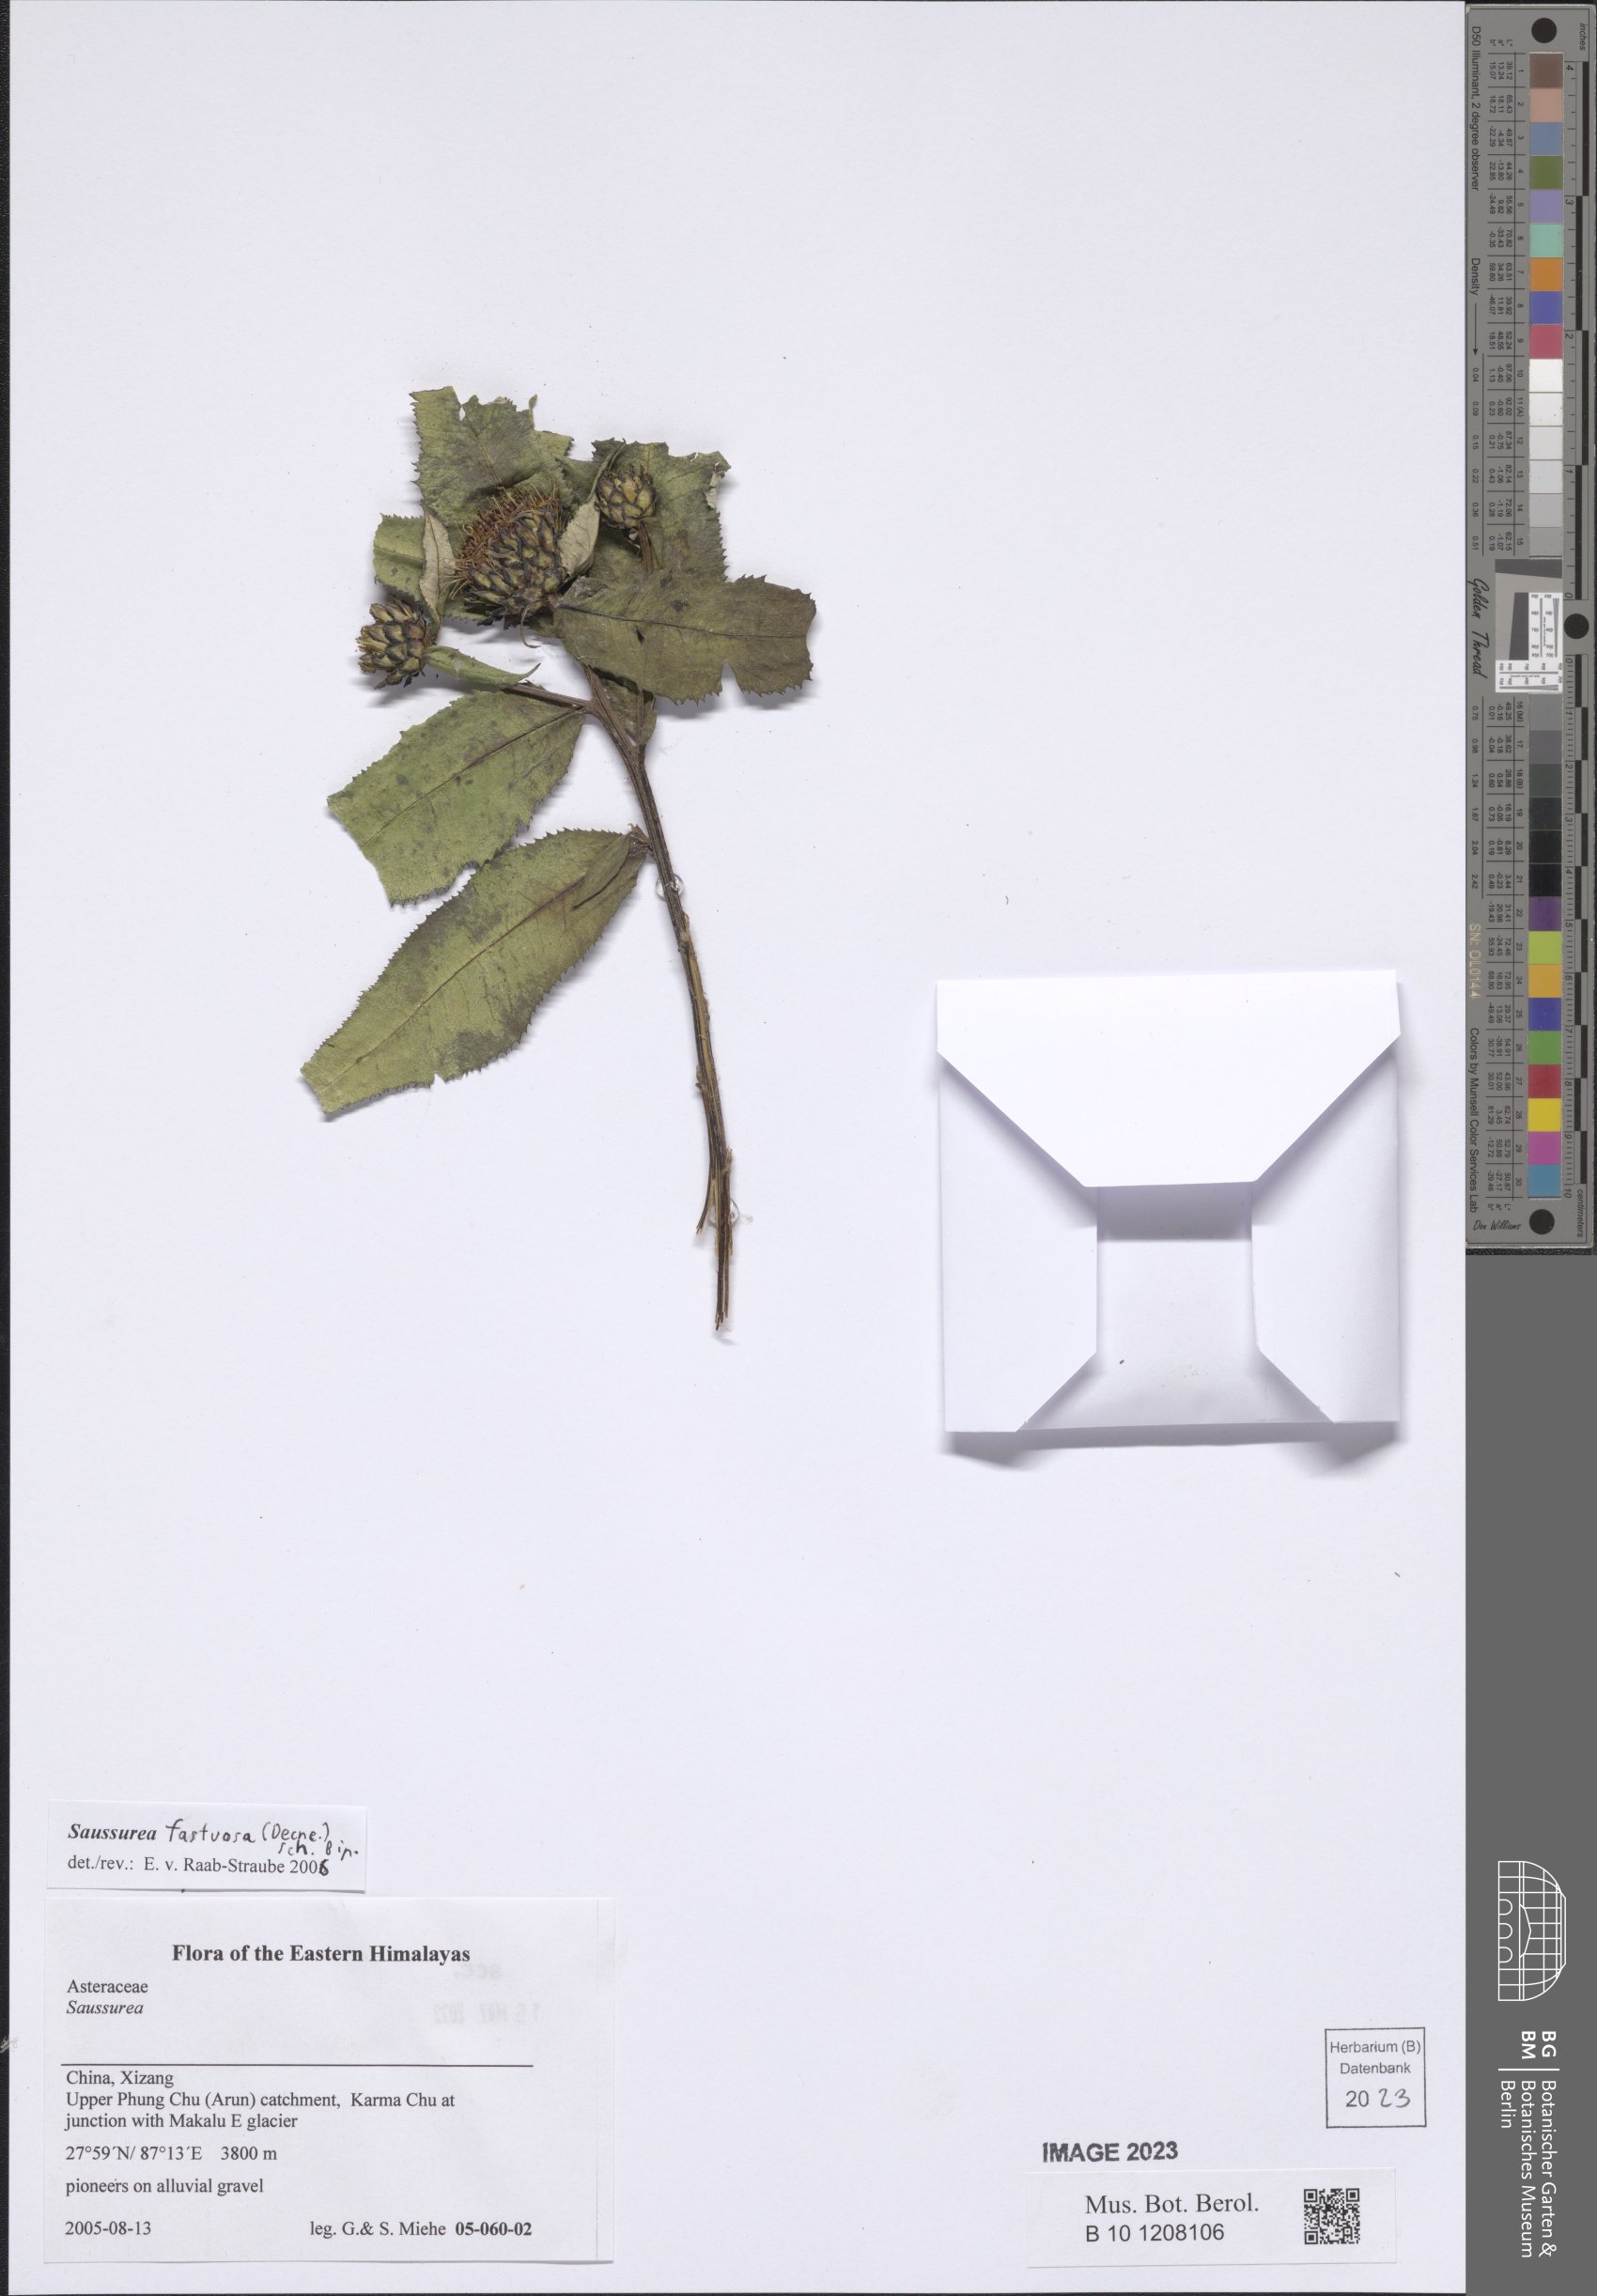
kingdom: Plantae
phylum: Tracheophyta
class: Magnoliopsida
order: Asterales
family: Asteraceae
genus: Shangwua
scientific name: Shangwua denticulata
